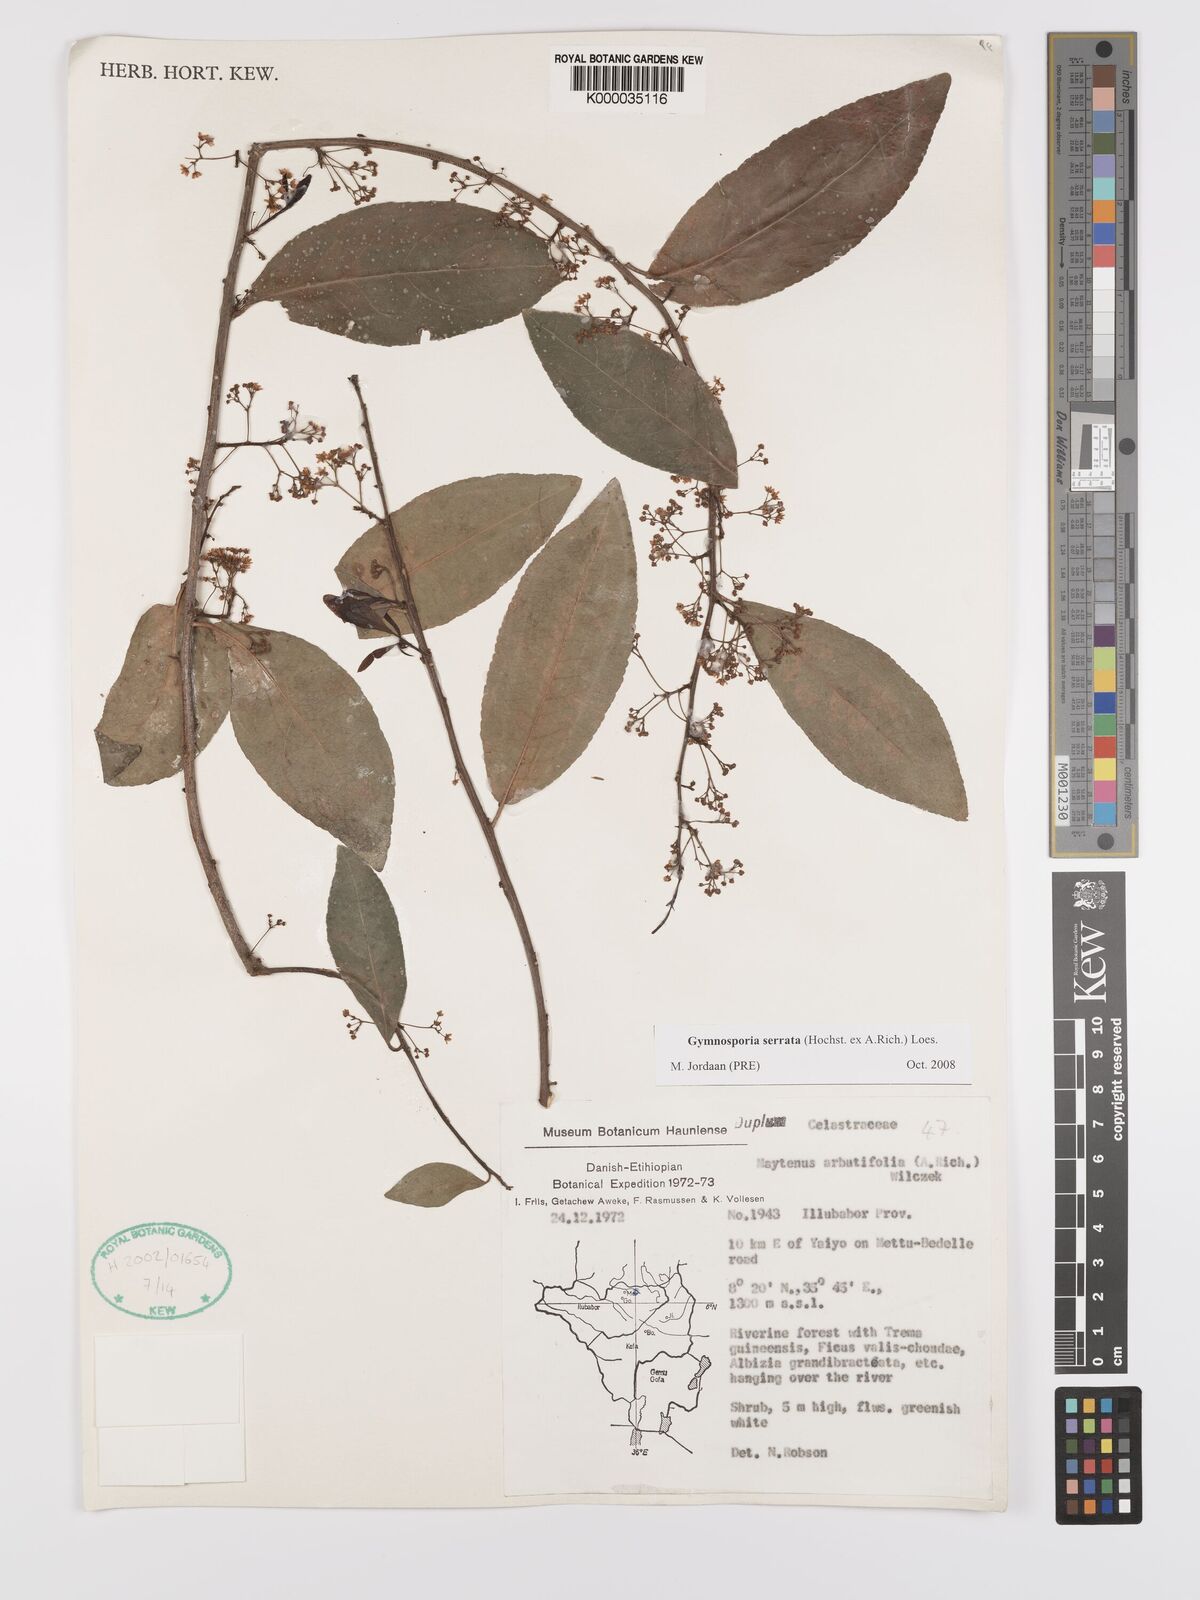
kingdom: Plantae
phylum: Tracheophyta
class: Magnoliopsida
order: Celastrales
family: Celastraceae
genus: Gymnosporia
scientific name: Gymnosporia serrata
